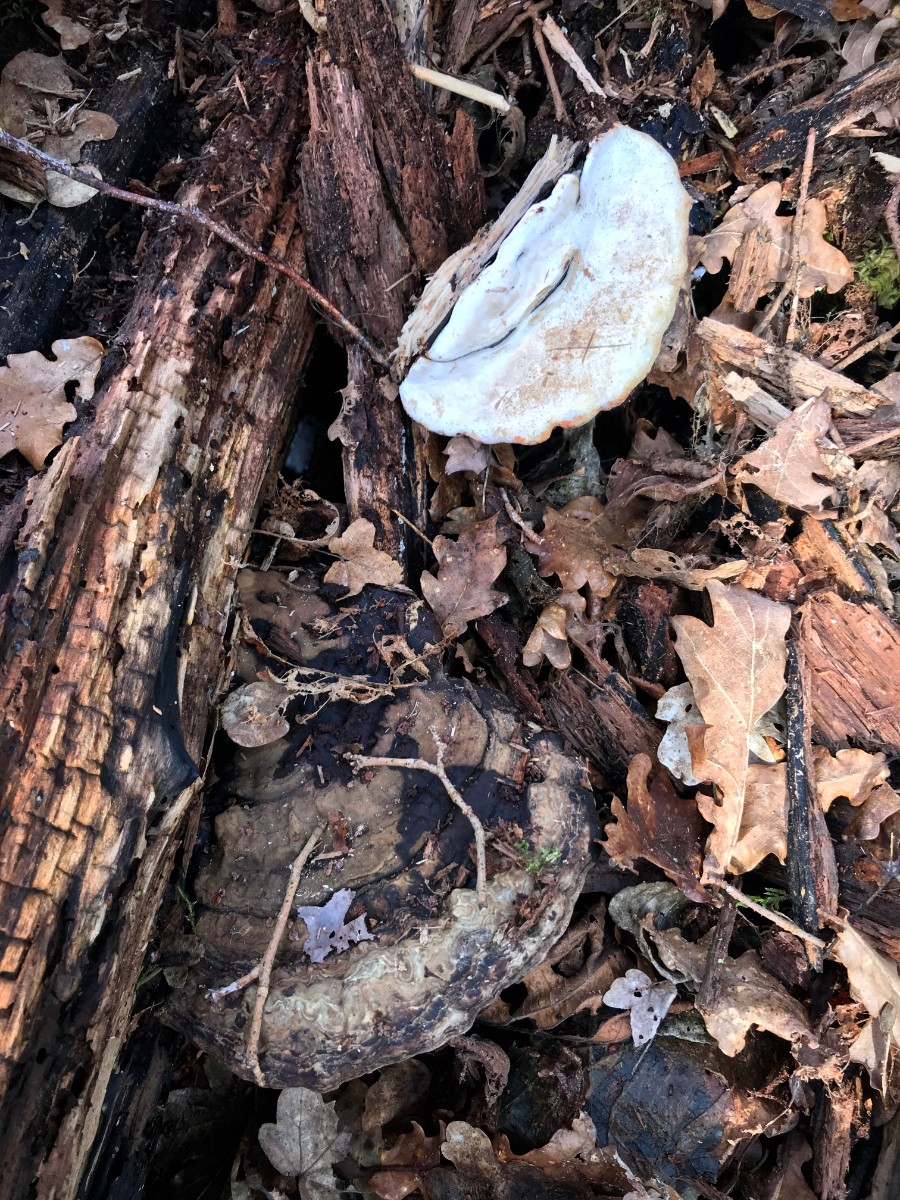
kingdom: Fungi
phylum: Basidiomycota
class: Agaricomycetes
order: Polyporales
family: Polyporaceae
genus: Ganoderma
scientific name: Ganoderma applanatum
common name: flad lakporesvamp
